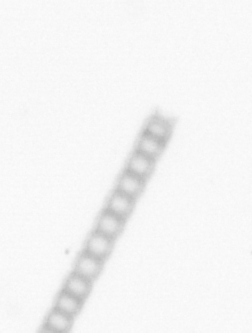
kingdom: Chromista
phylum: Ochrophyta
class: Bacillariophyceae
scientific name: Bacillariophyceae
